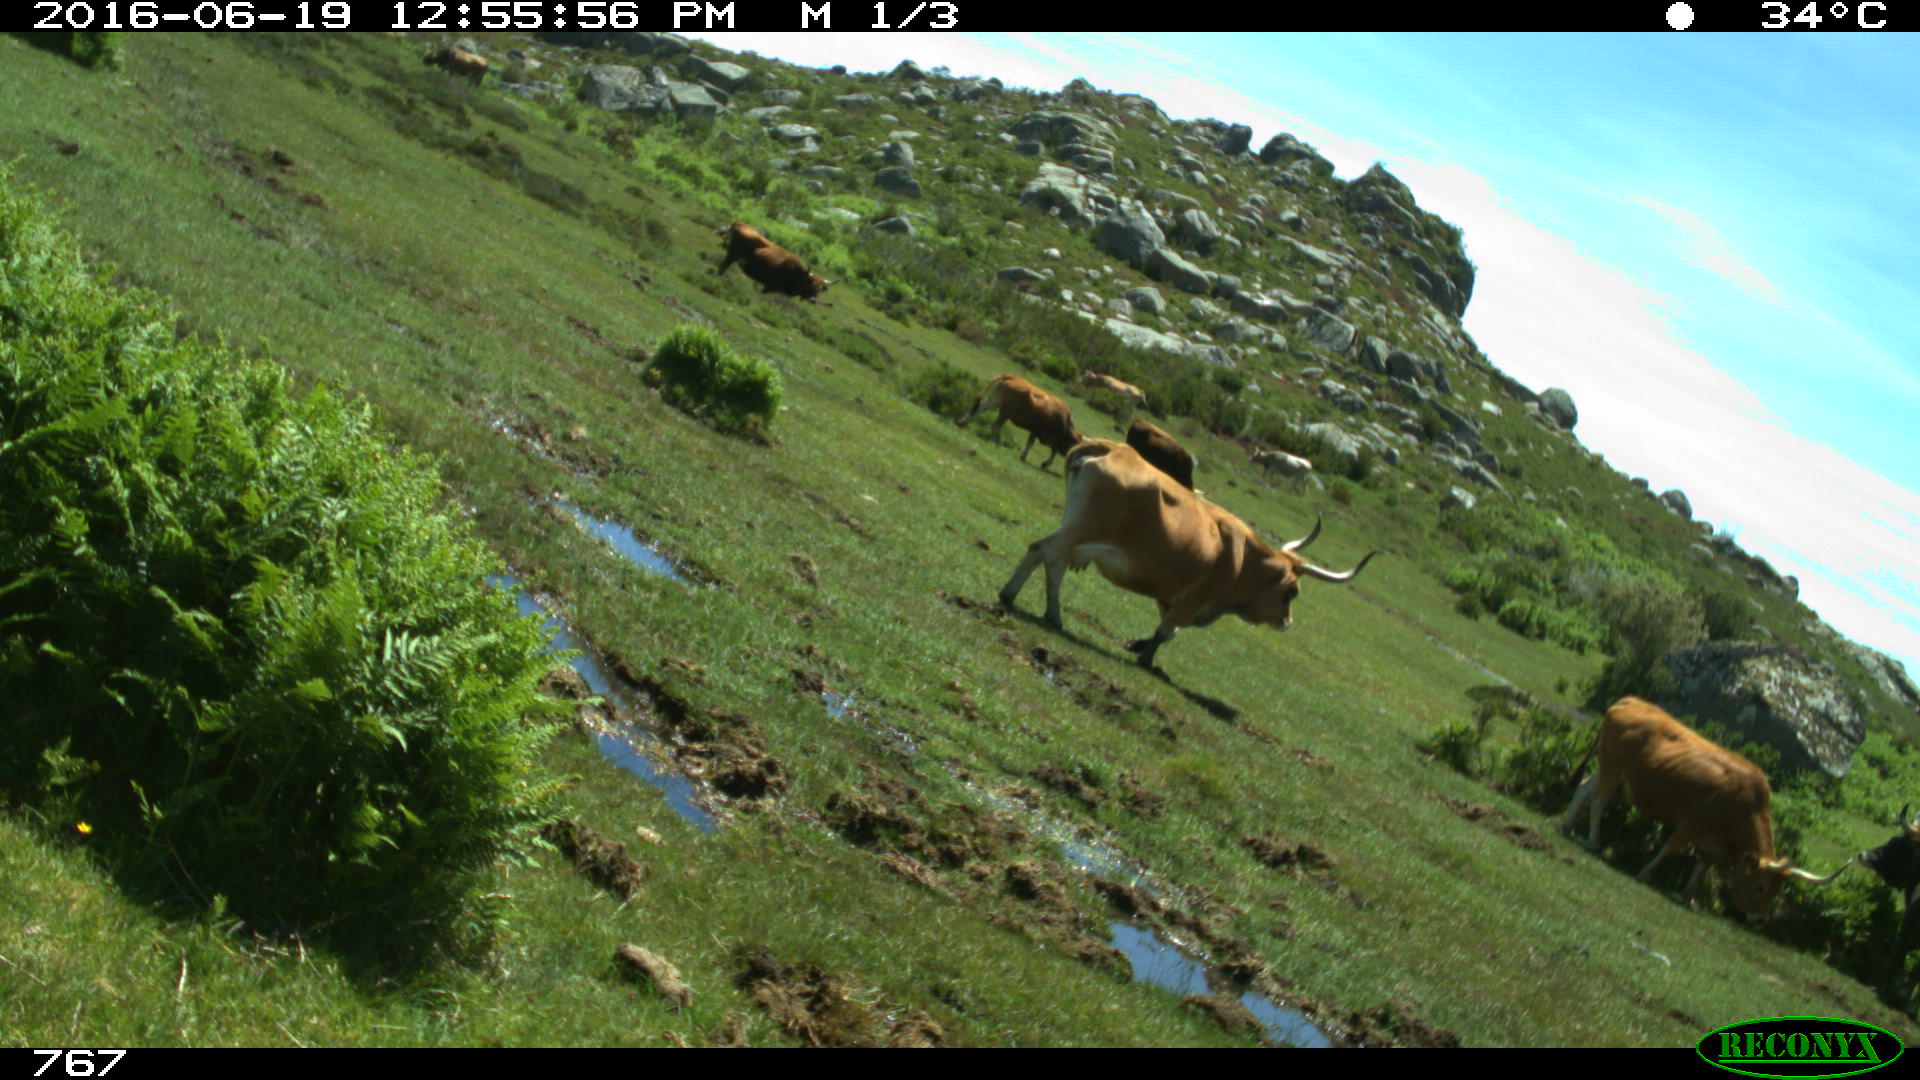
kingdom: Animalia
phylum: Chordata
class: Mammalia
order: Artiodactyla
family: Bovidae
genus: Bos
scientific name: Bos taurus
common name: Domesticated cattle
